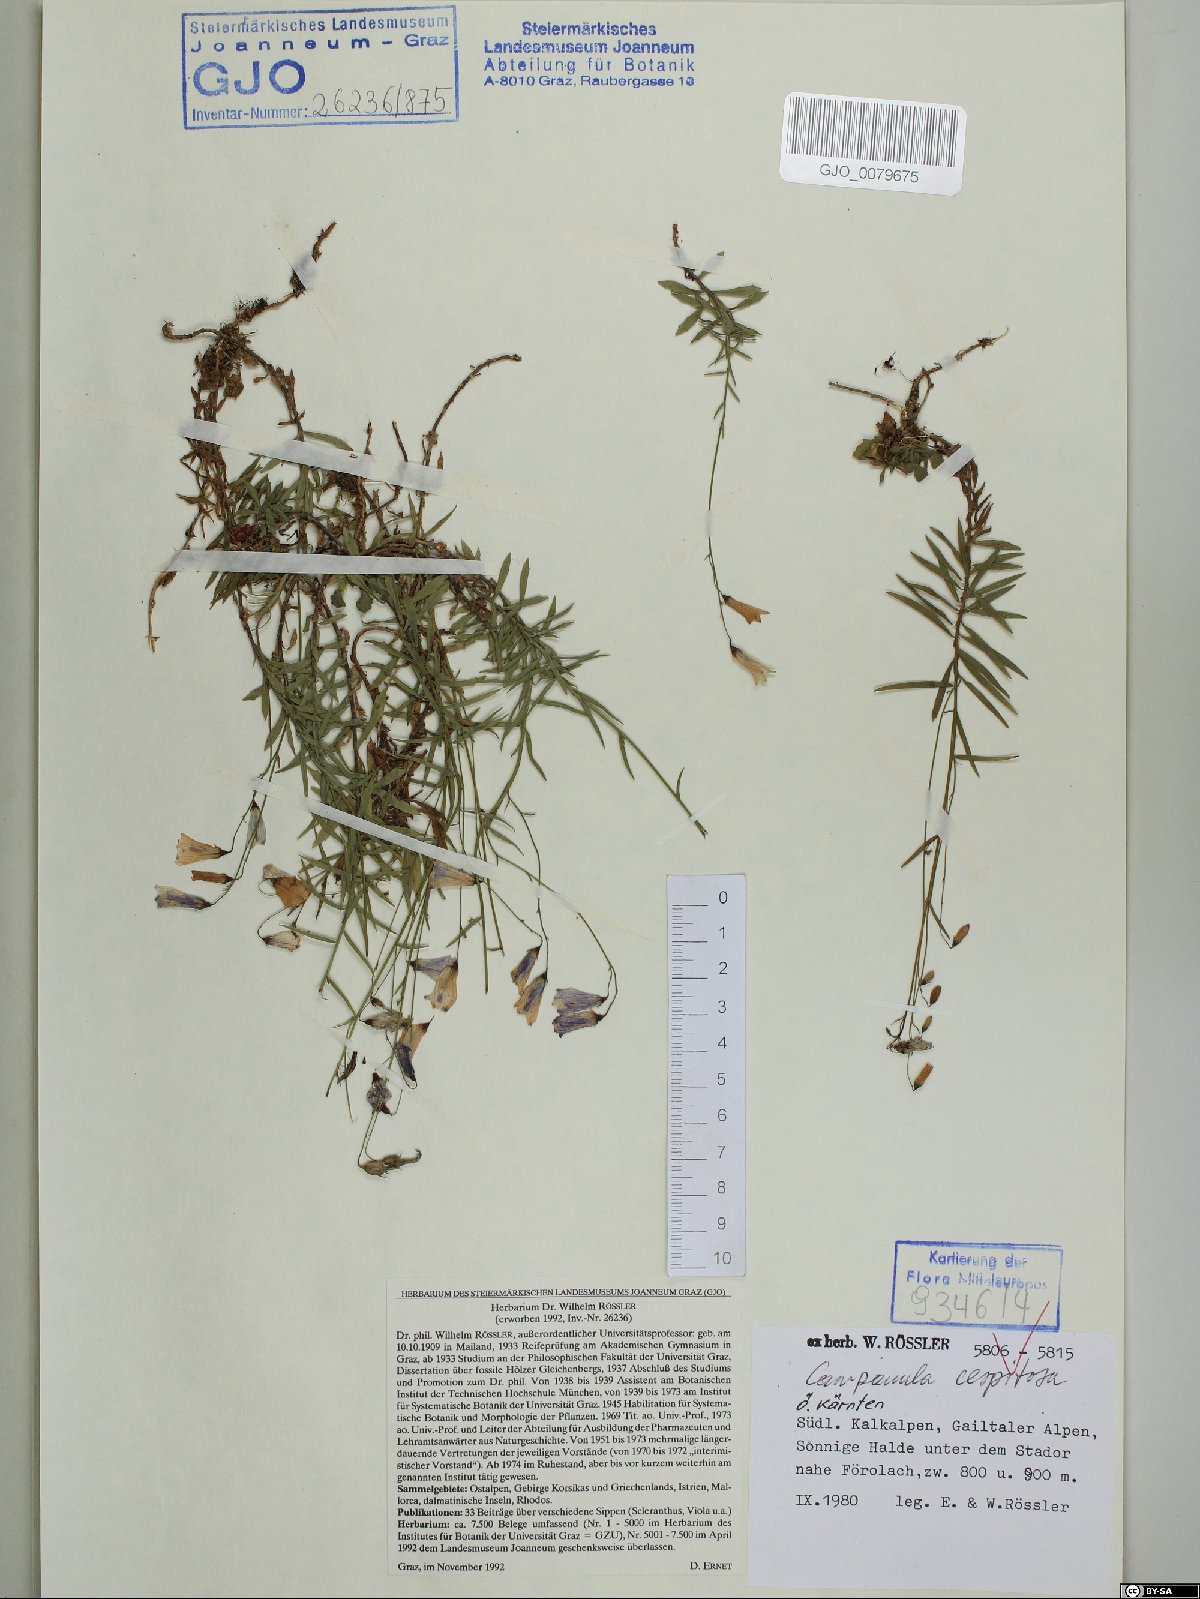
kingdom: Plantae
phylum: Tracheophyta
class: Magnoliopsida
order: Asterales
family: Campanulaceae
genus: Campanula
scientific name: Campanula cespitosa
